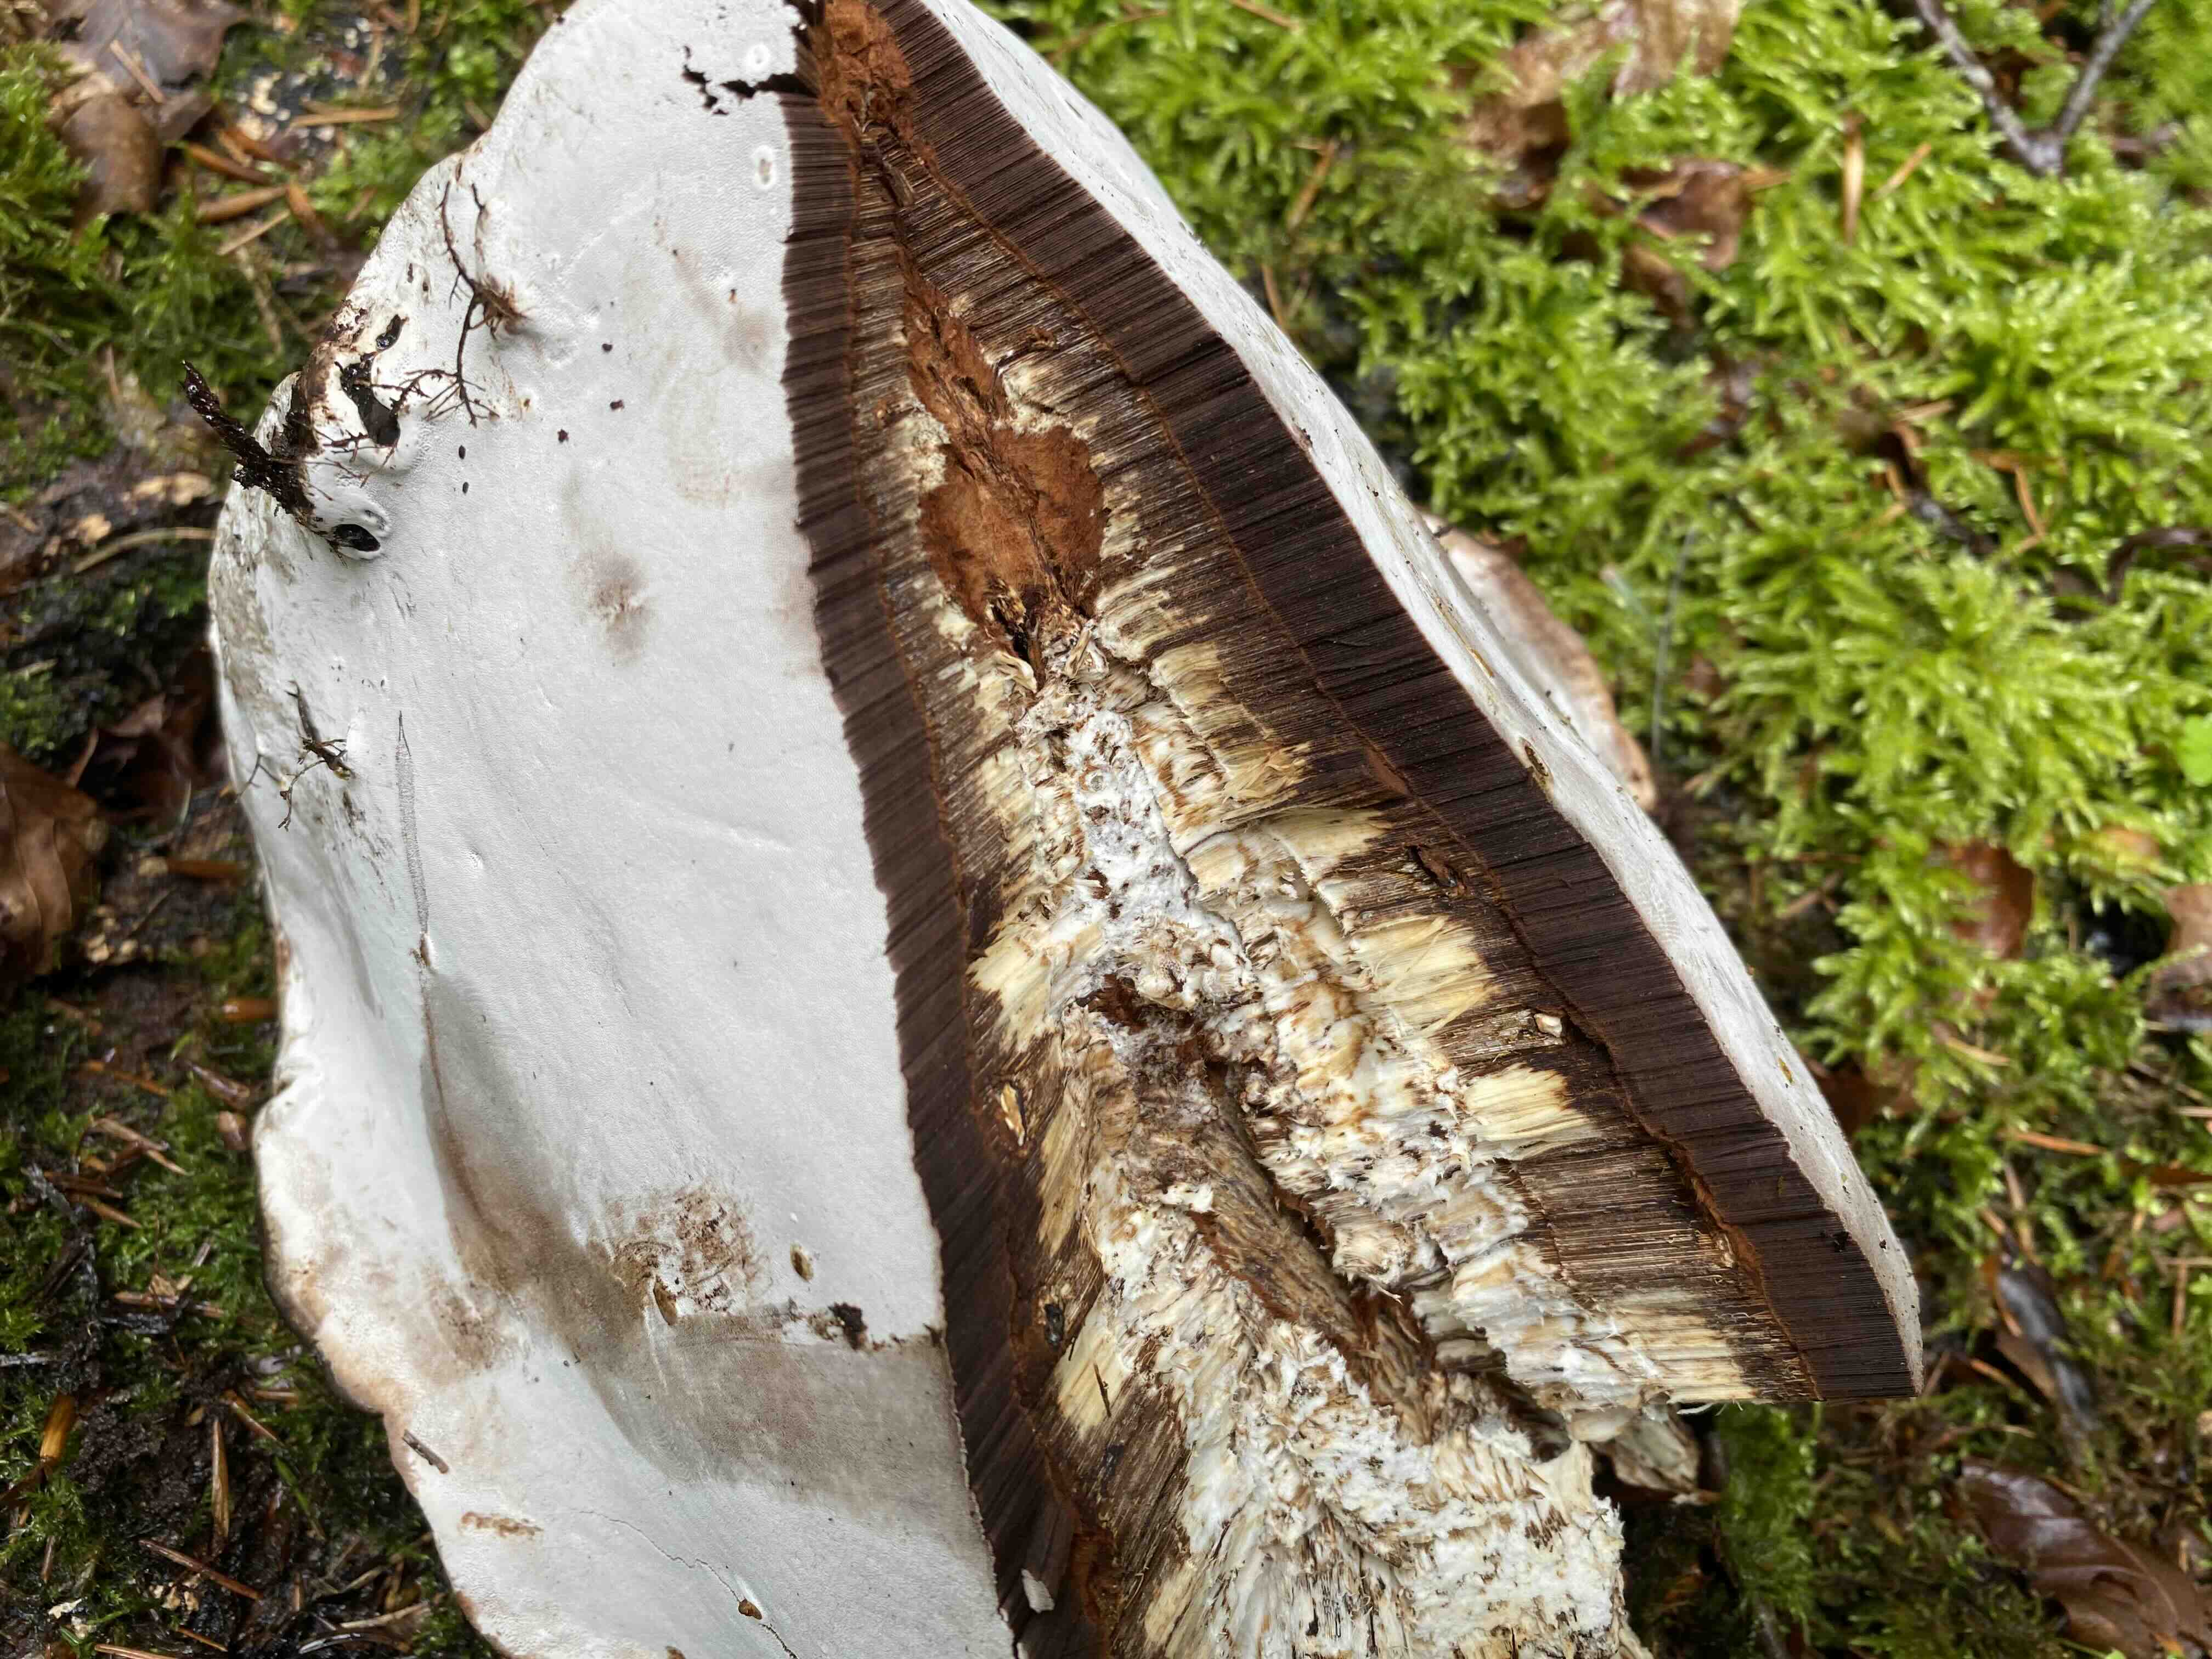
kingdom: Fungi
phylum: Basidiomycota
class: Agaricomycetes
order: Polyporales
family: Polyporaceae
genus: Ganoderma
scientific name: Ganoderma applanatum
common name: flad lakporesvamp
